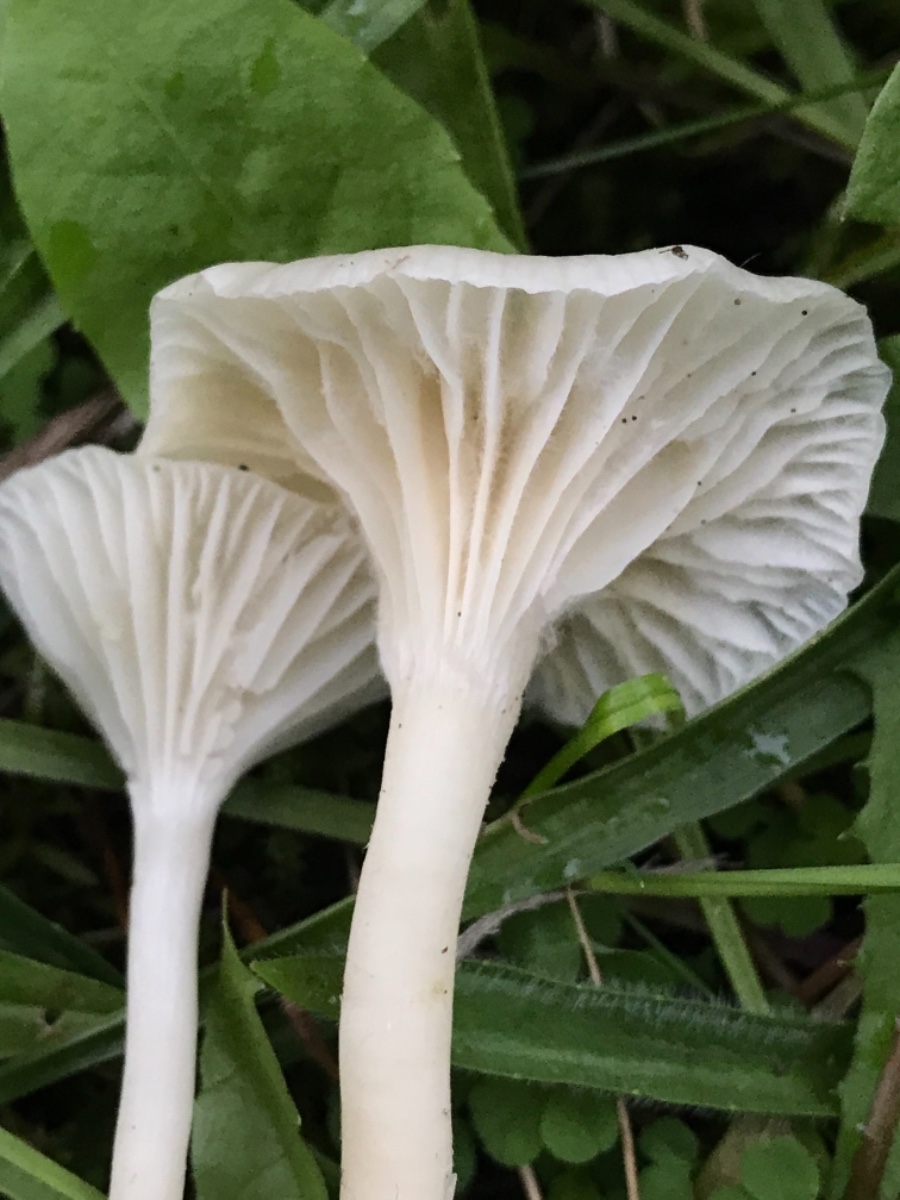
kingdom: Fungi
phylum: Basidiomycota
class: Agaricomycetes
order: Agaricales
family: Hygrophoraceae
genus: Cuphophyllus
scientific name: Cuphophyllus virgineus
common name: snehvid vokshat
